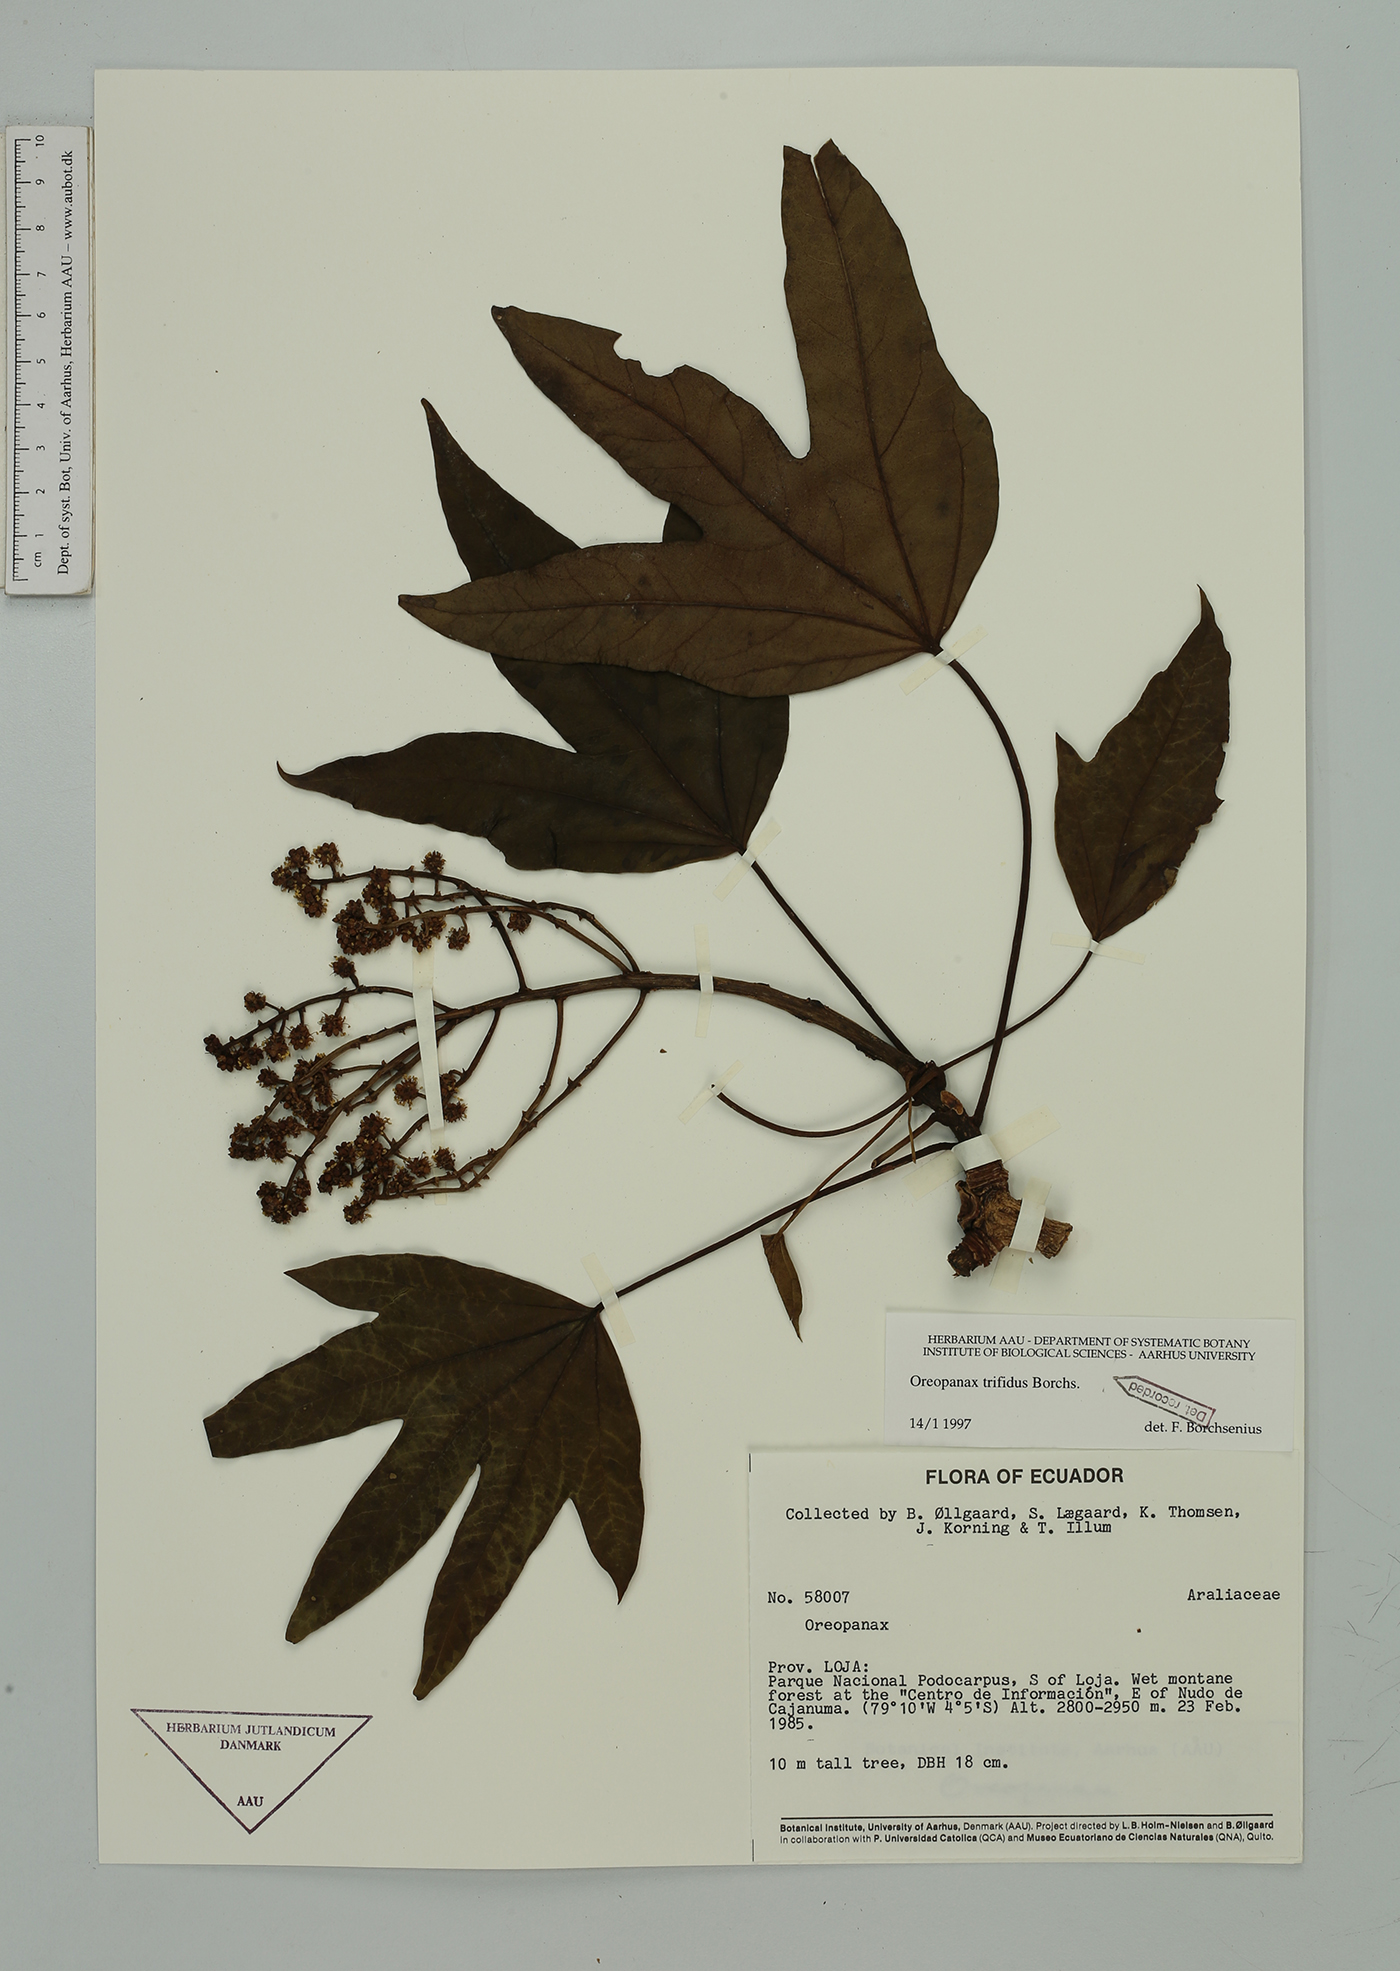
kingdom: Plantae
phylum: Tracheophyta
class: Magnoliopsida
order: Apiales
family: Araliaceae
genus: Oreopanax
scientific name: Oreopanax trifidus
